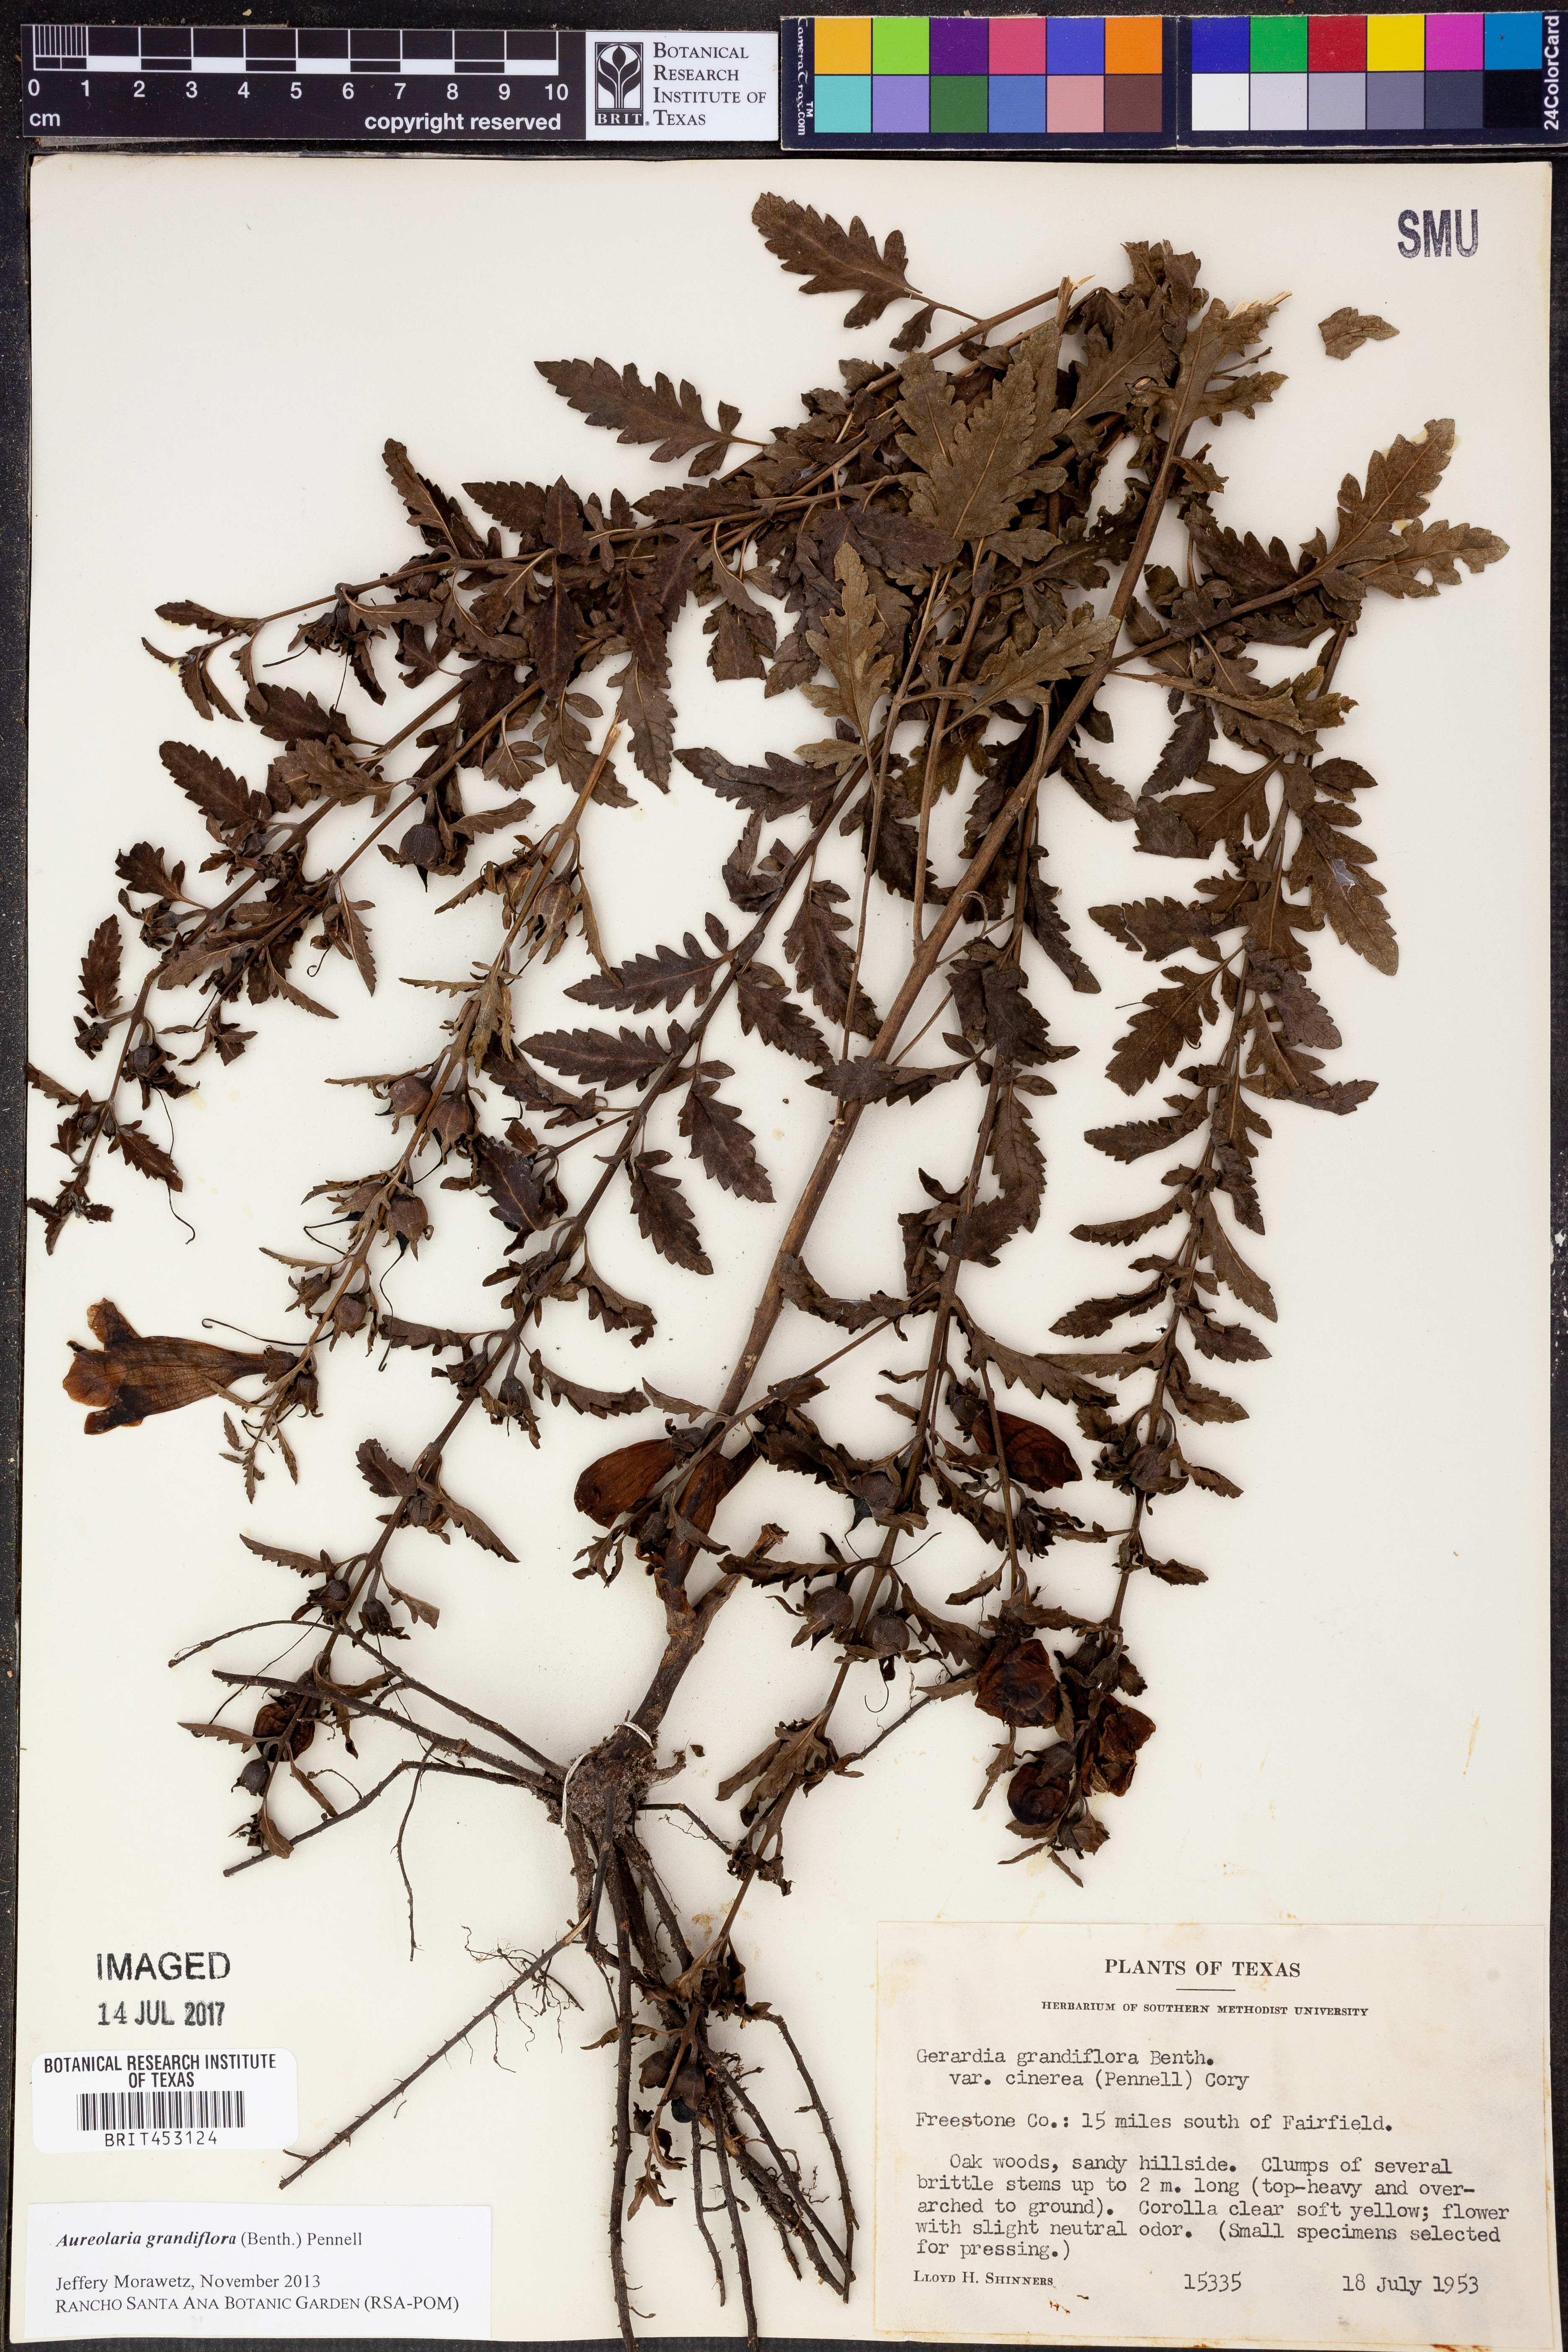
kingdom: Plantae
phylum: Tracheophyta
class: Magnoliopsida
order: Lamiales
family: Orobanchaceae
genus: Aureolaria
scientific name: Aureolaria grandiflora
